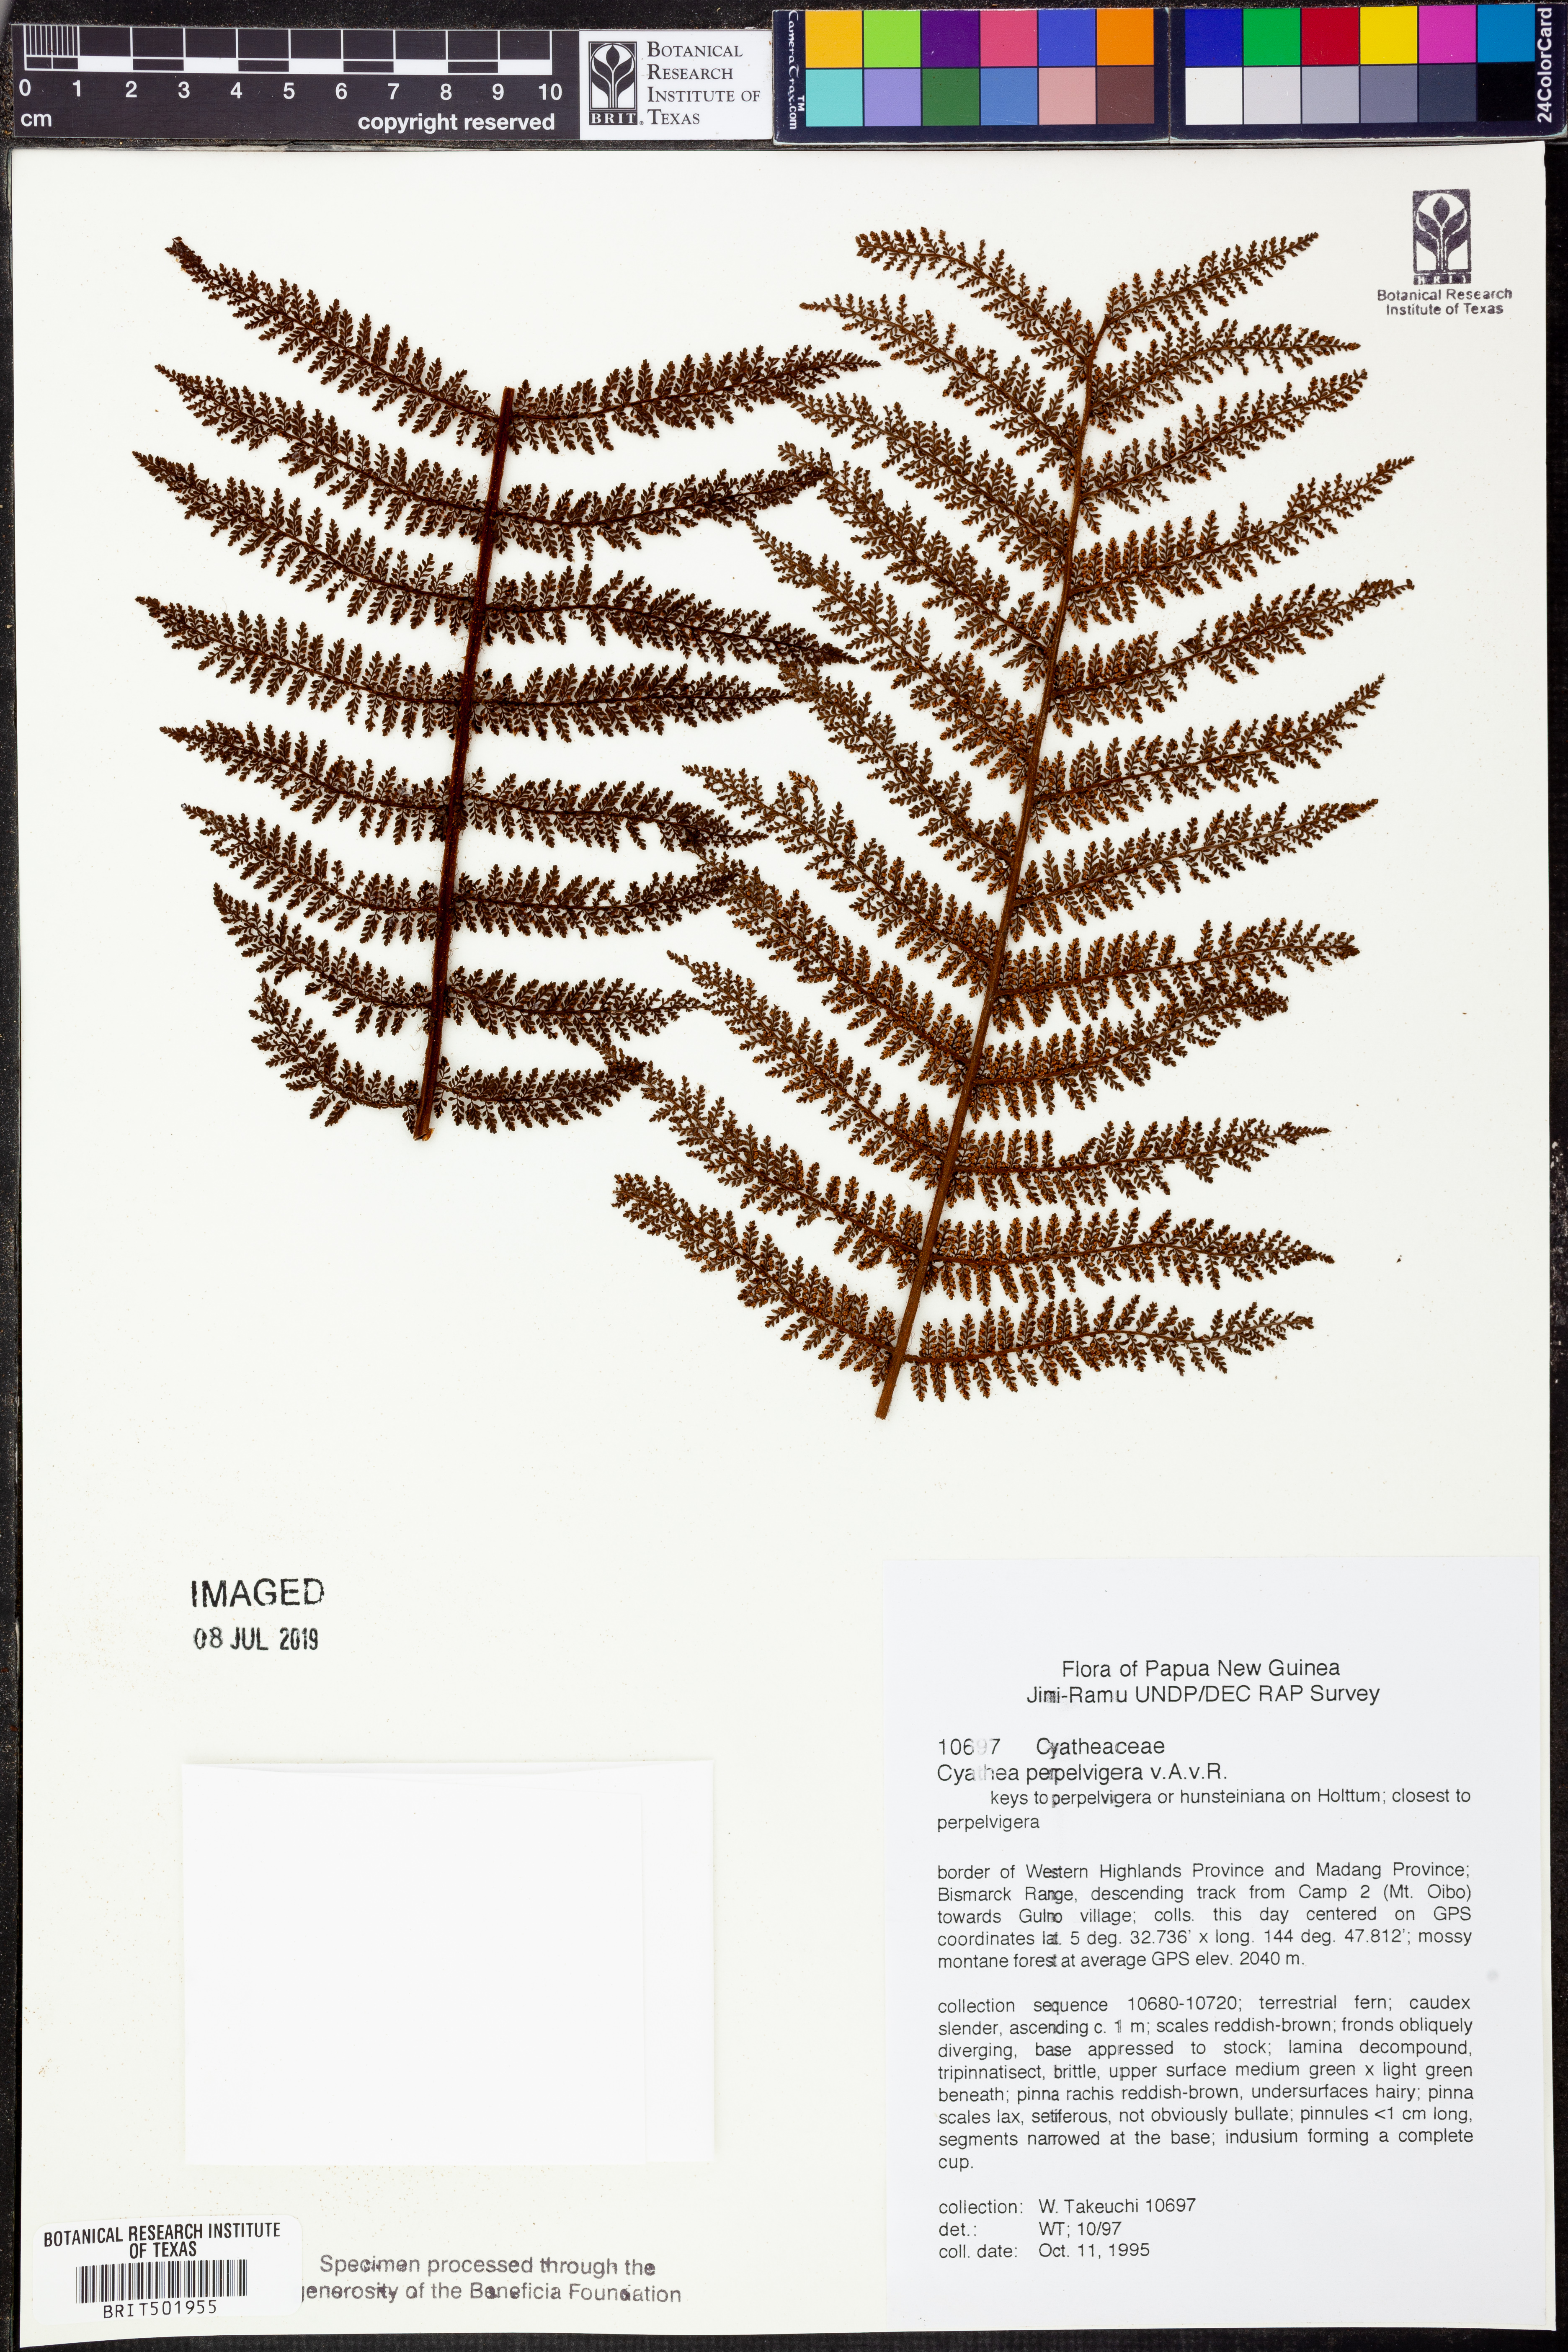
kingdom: Plantae
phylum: Tracheophyta
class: Polypodiopsida
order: Cyatheales
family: Cyatheaceae
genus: Alsophila
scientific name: Alsophila perpelvigera
